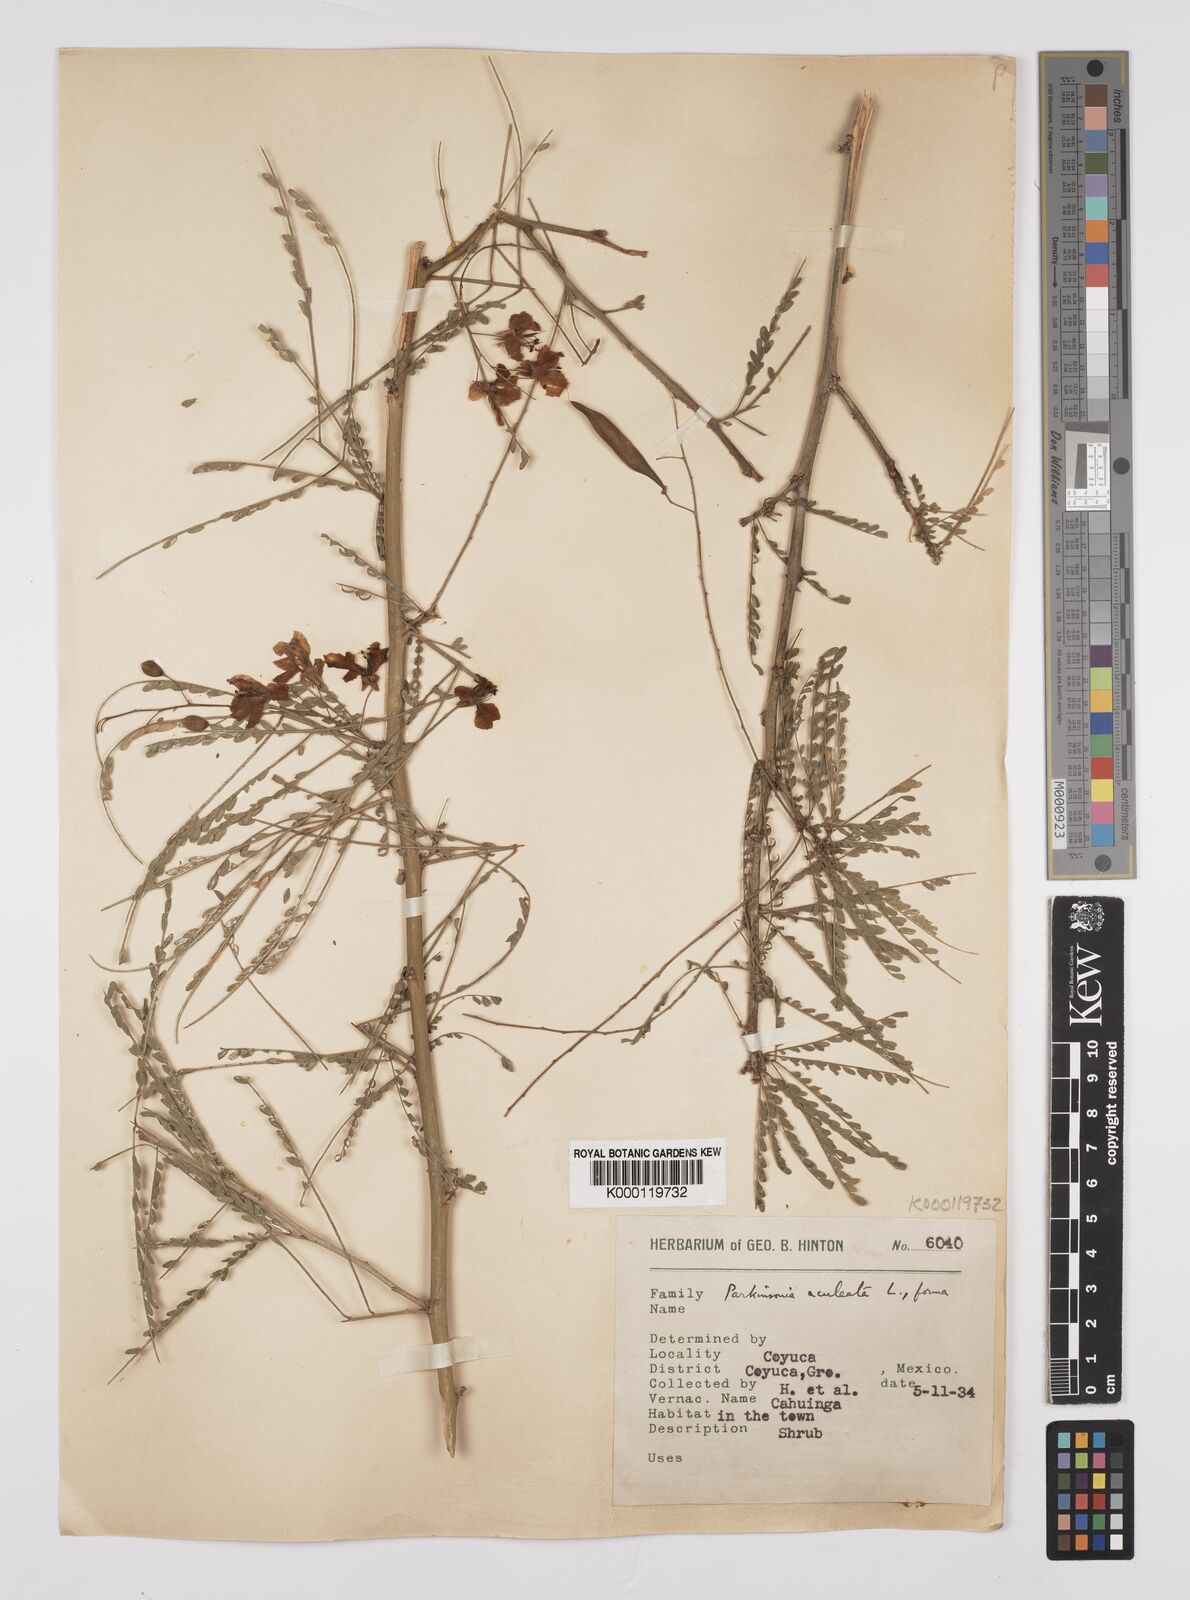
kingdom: Plantae
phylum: Tracheophyta
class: Magnoliopsida
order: Fabales
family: Fabaceae
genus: Parkinsonia
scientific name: Parkinsonia
